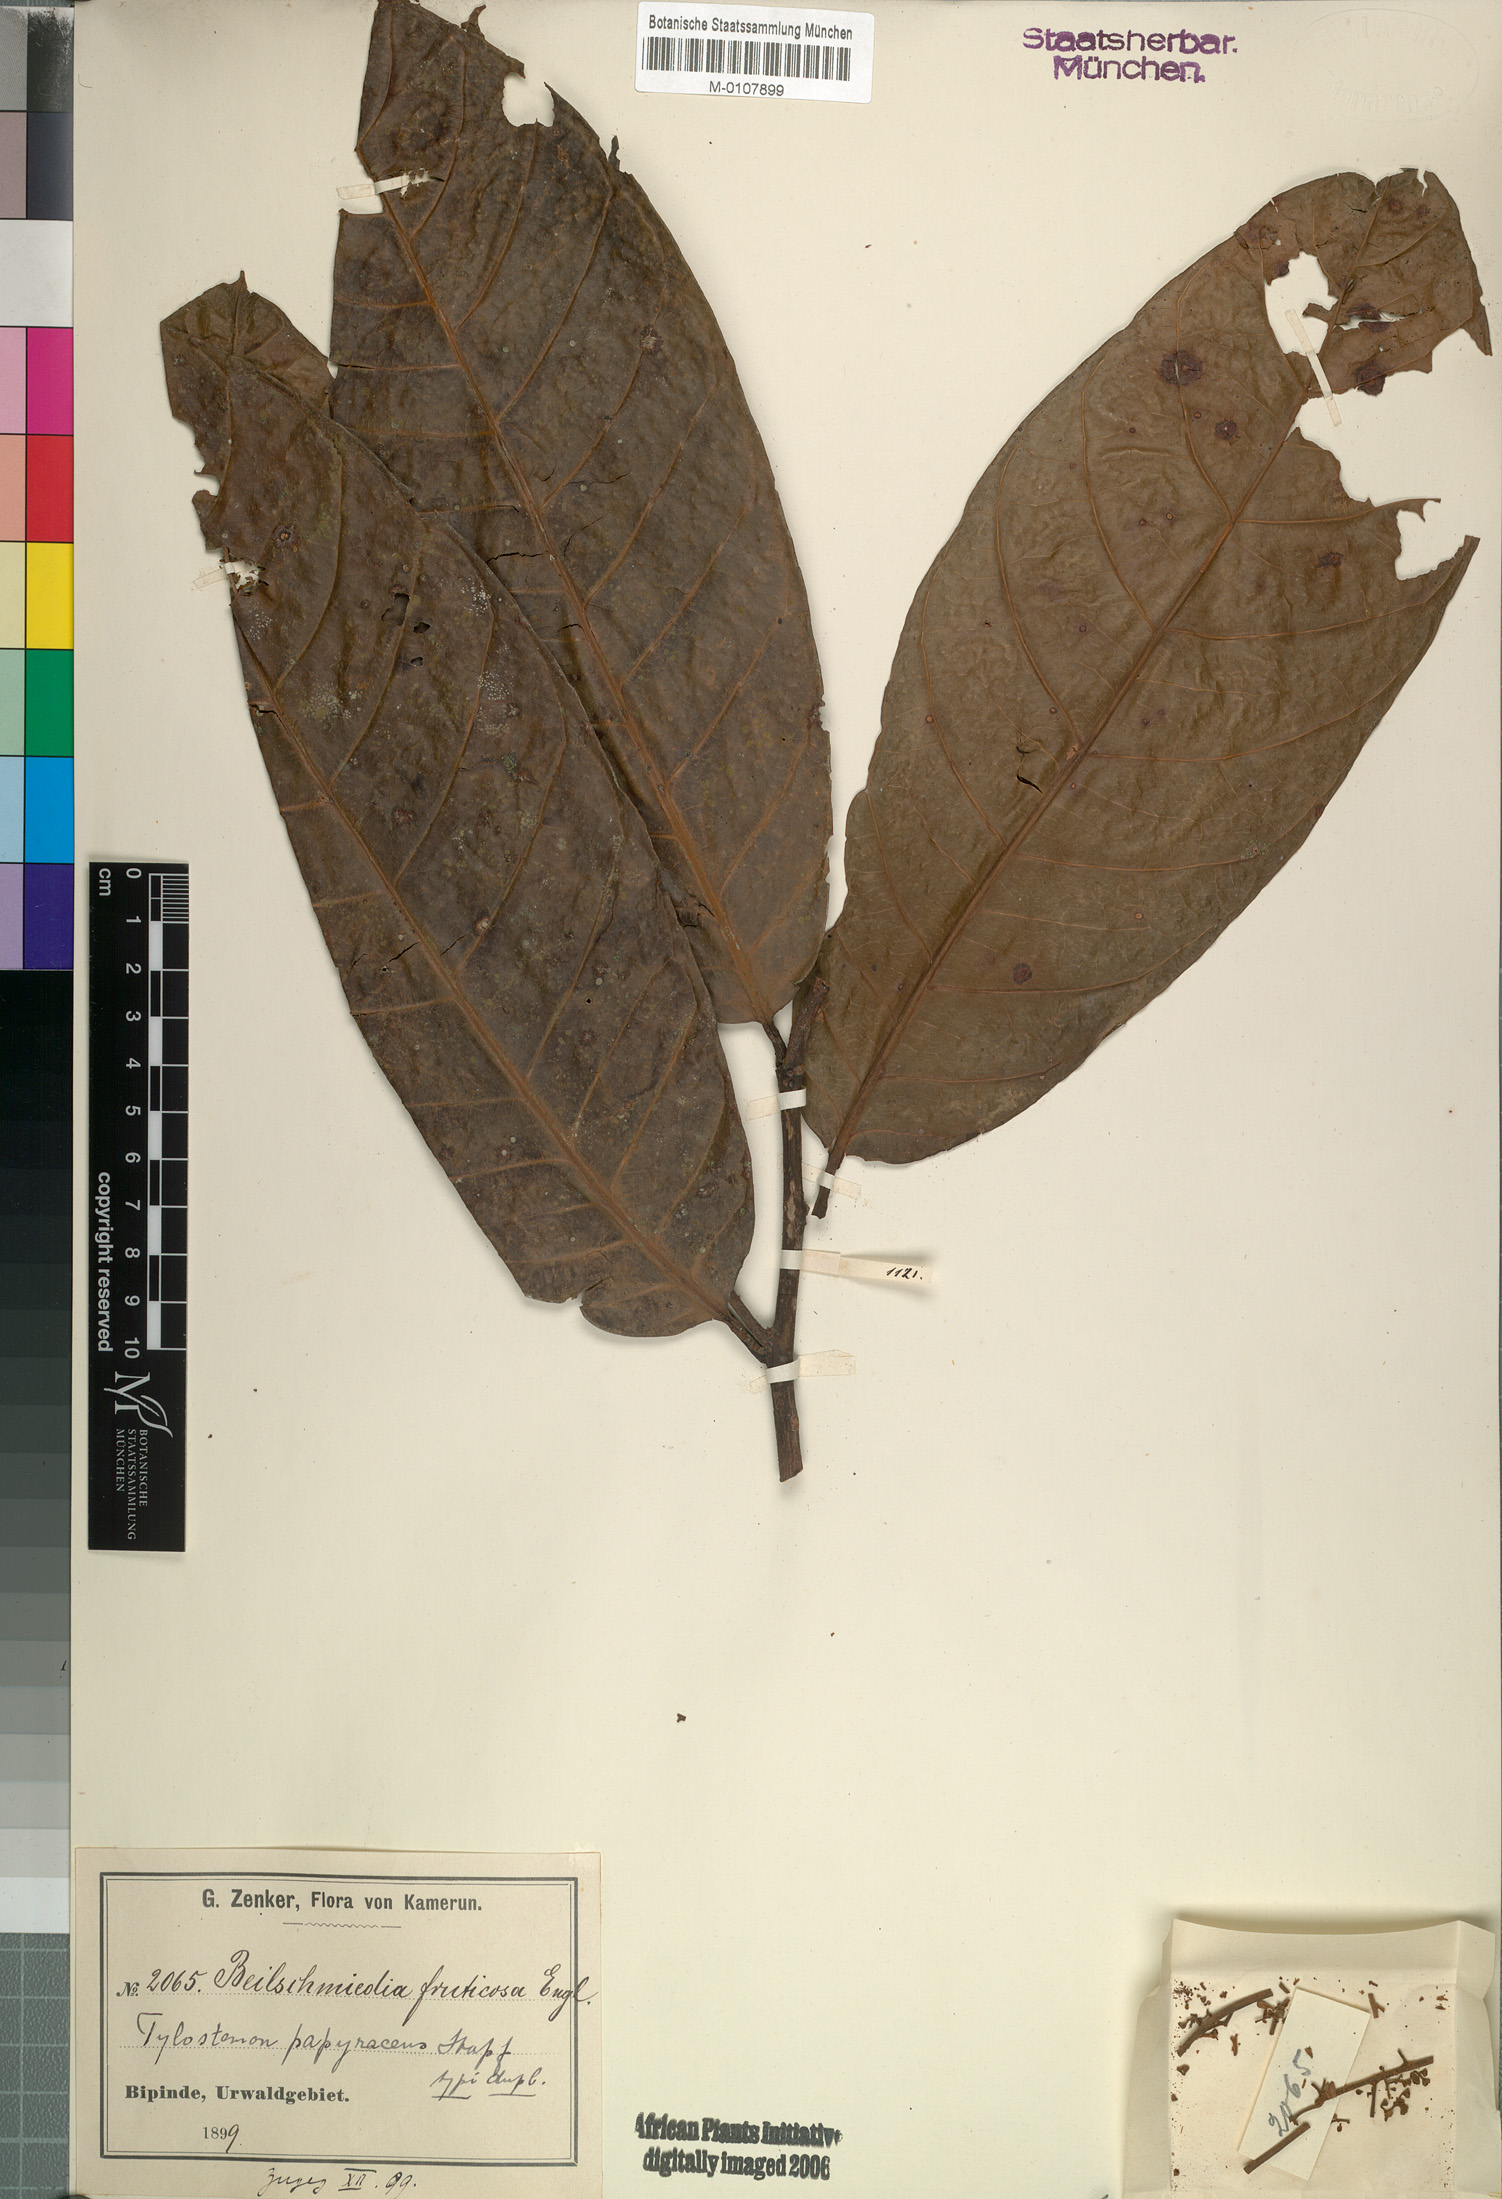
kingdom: Plantae
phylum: Tracheophyta
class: Magnoliopsida
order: Laurales
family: Lauraceae
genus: Beilschmiedia
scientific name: Beilschmiedia papyracea
